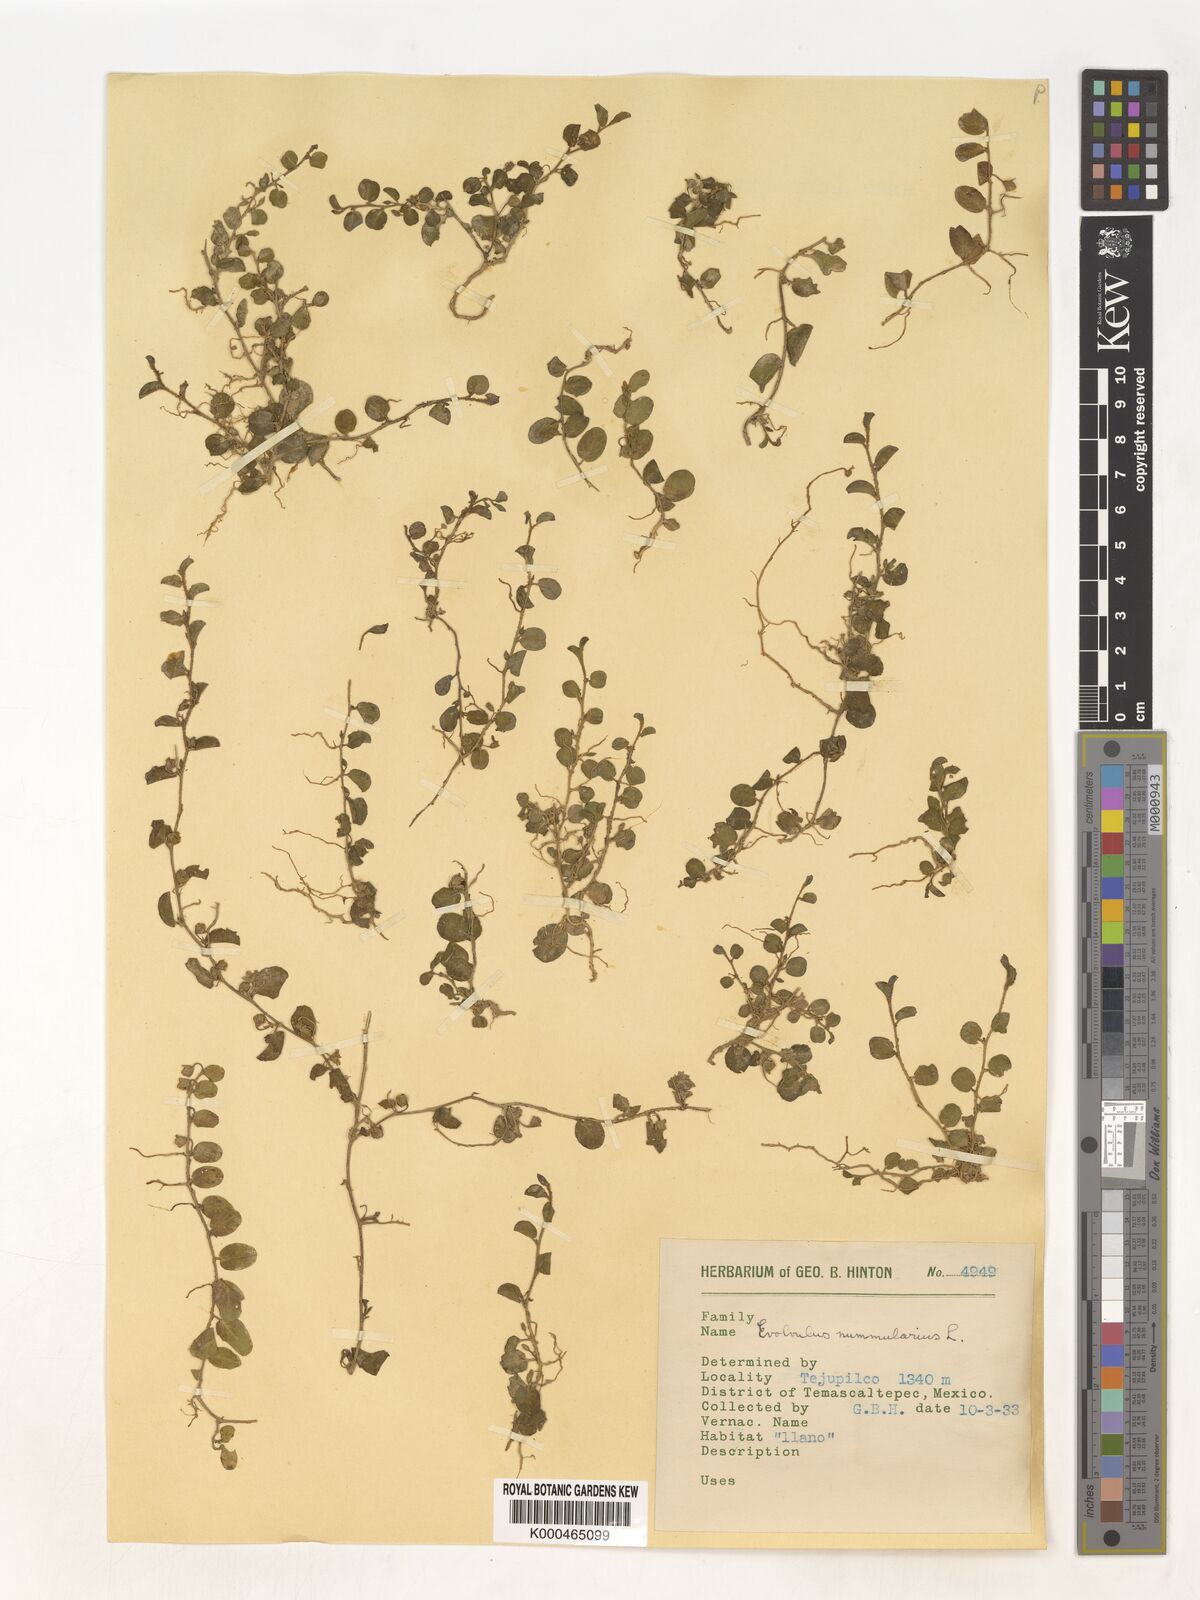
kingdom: Plantae
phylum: Tracheophyta
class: Magnoliopsida
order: Solanales
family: Convolvulaceae
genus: Evolvulus
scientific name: Evolvulus nummularius
